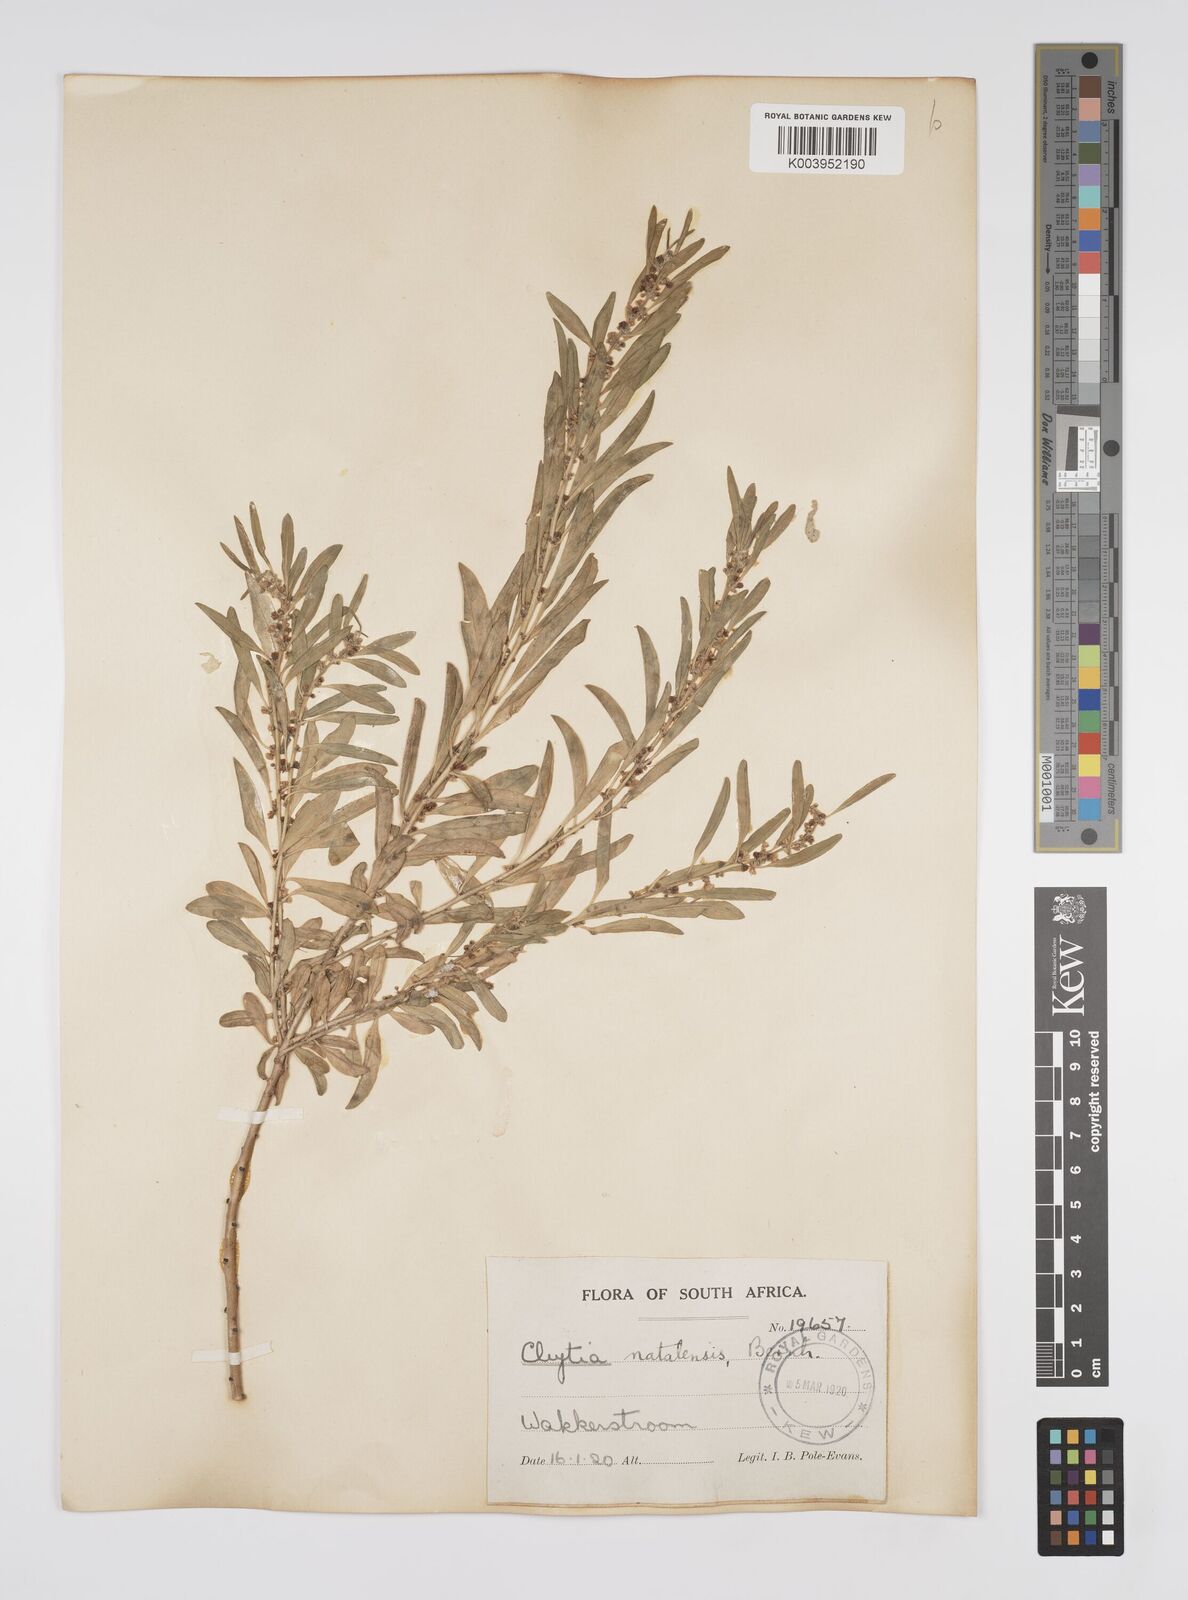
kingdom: Plantae
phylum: Tracheophyta
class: Magnoliopsida
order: Malpighiales
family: Peraceae
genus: Clutia
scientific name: Clutia natalensis
